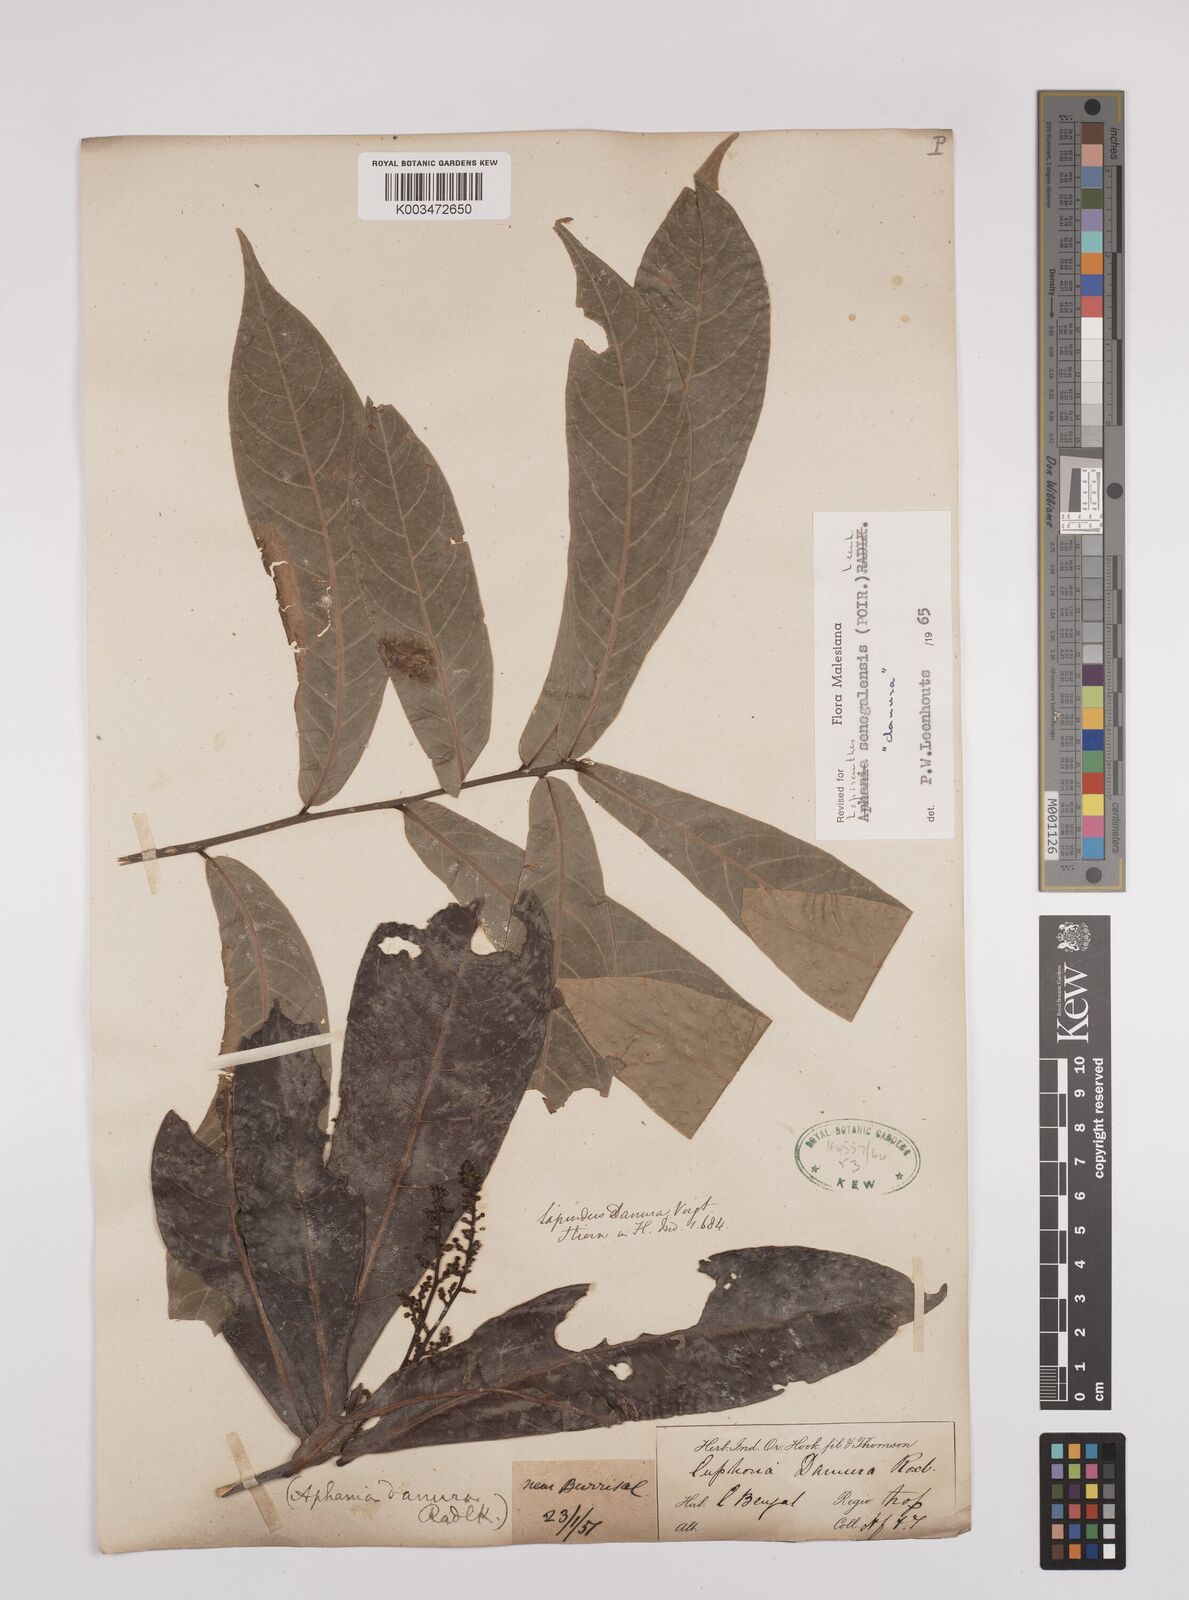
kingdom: Plantae
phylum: Tracheophyta
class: Magnoliopsida
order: Sapindales
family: Sapindaceae
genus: Lepisanthes
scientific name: Lepisanthes senegalensis
